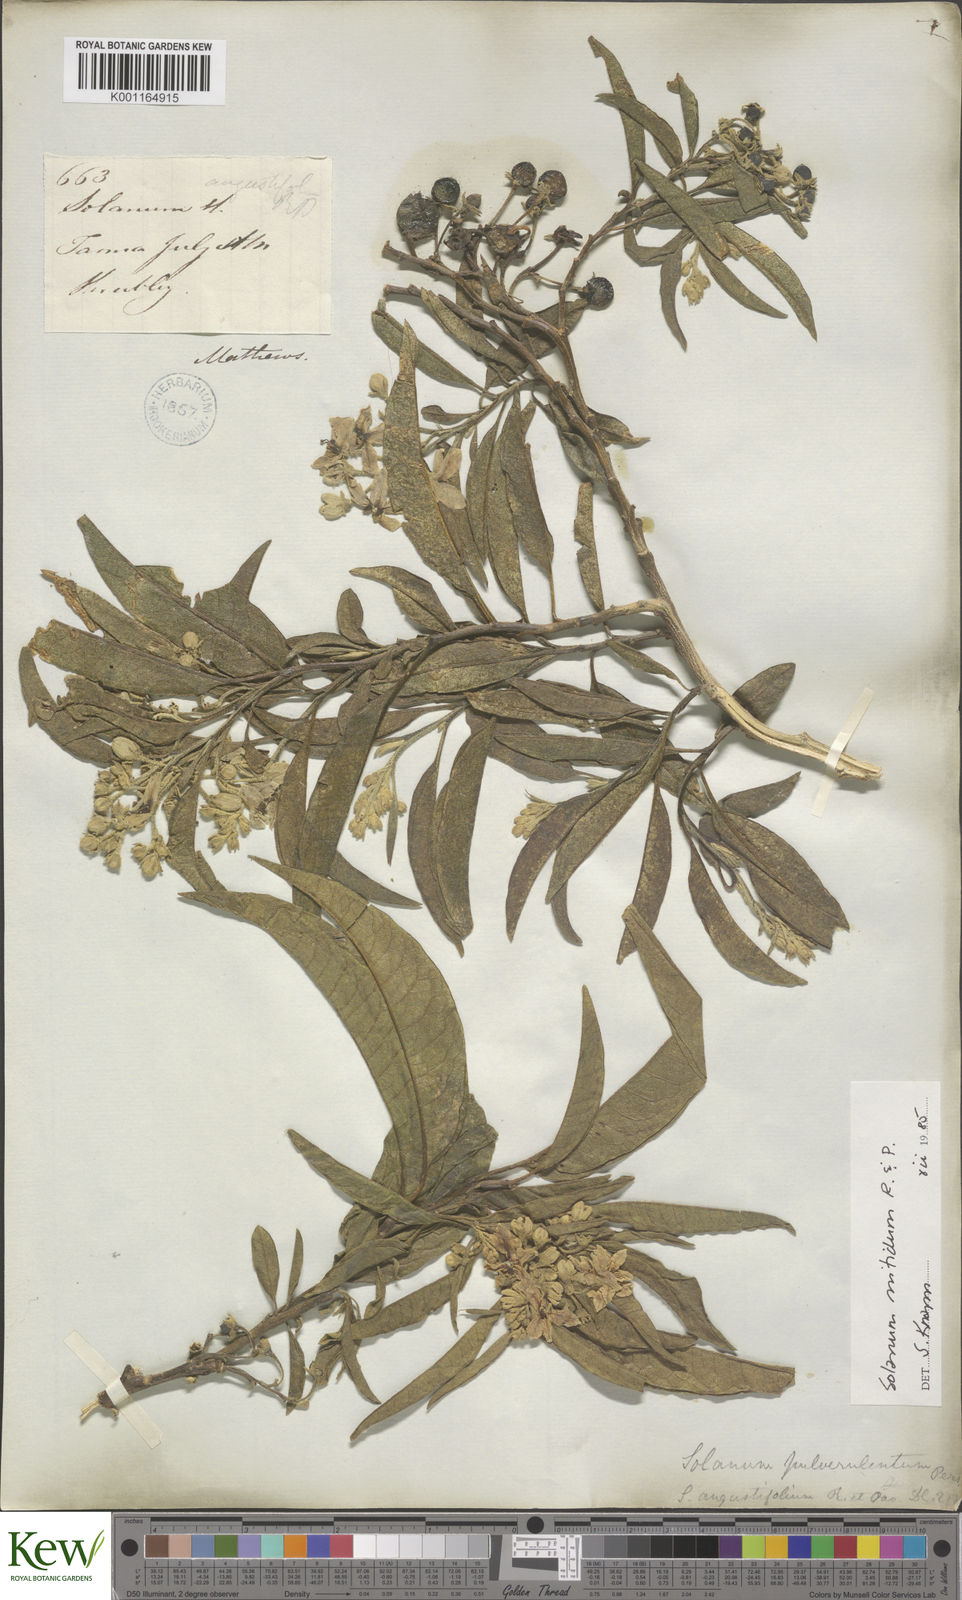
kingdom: Plantae
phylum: Tracheophyta
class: Magnoliopsida
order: Solanales
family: Solanaceae
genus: Solanum
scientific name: Solanum nitidum
